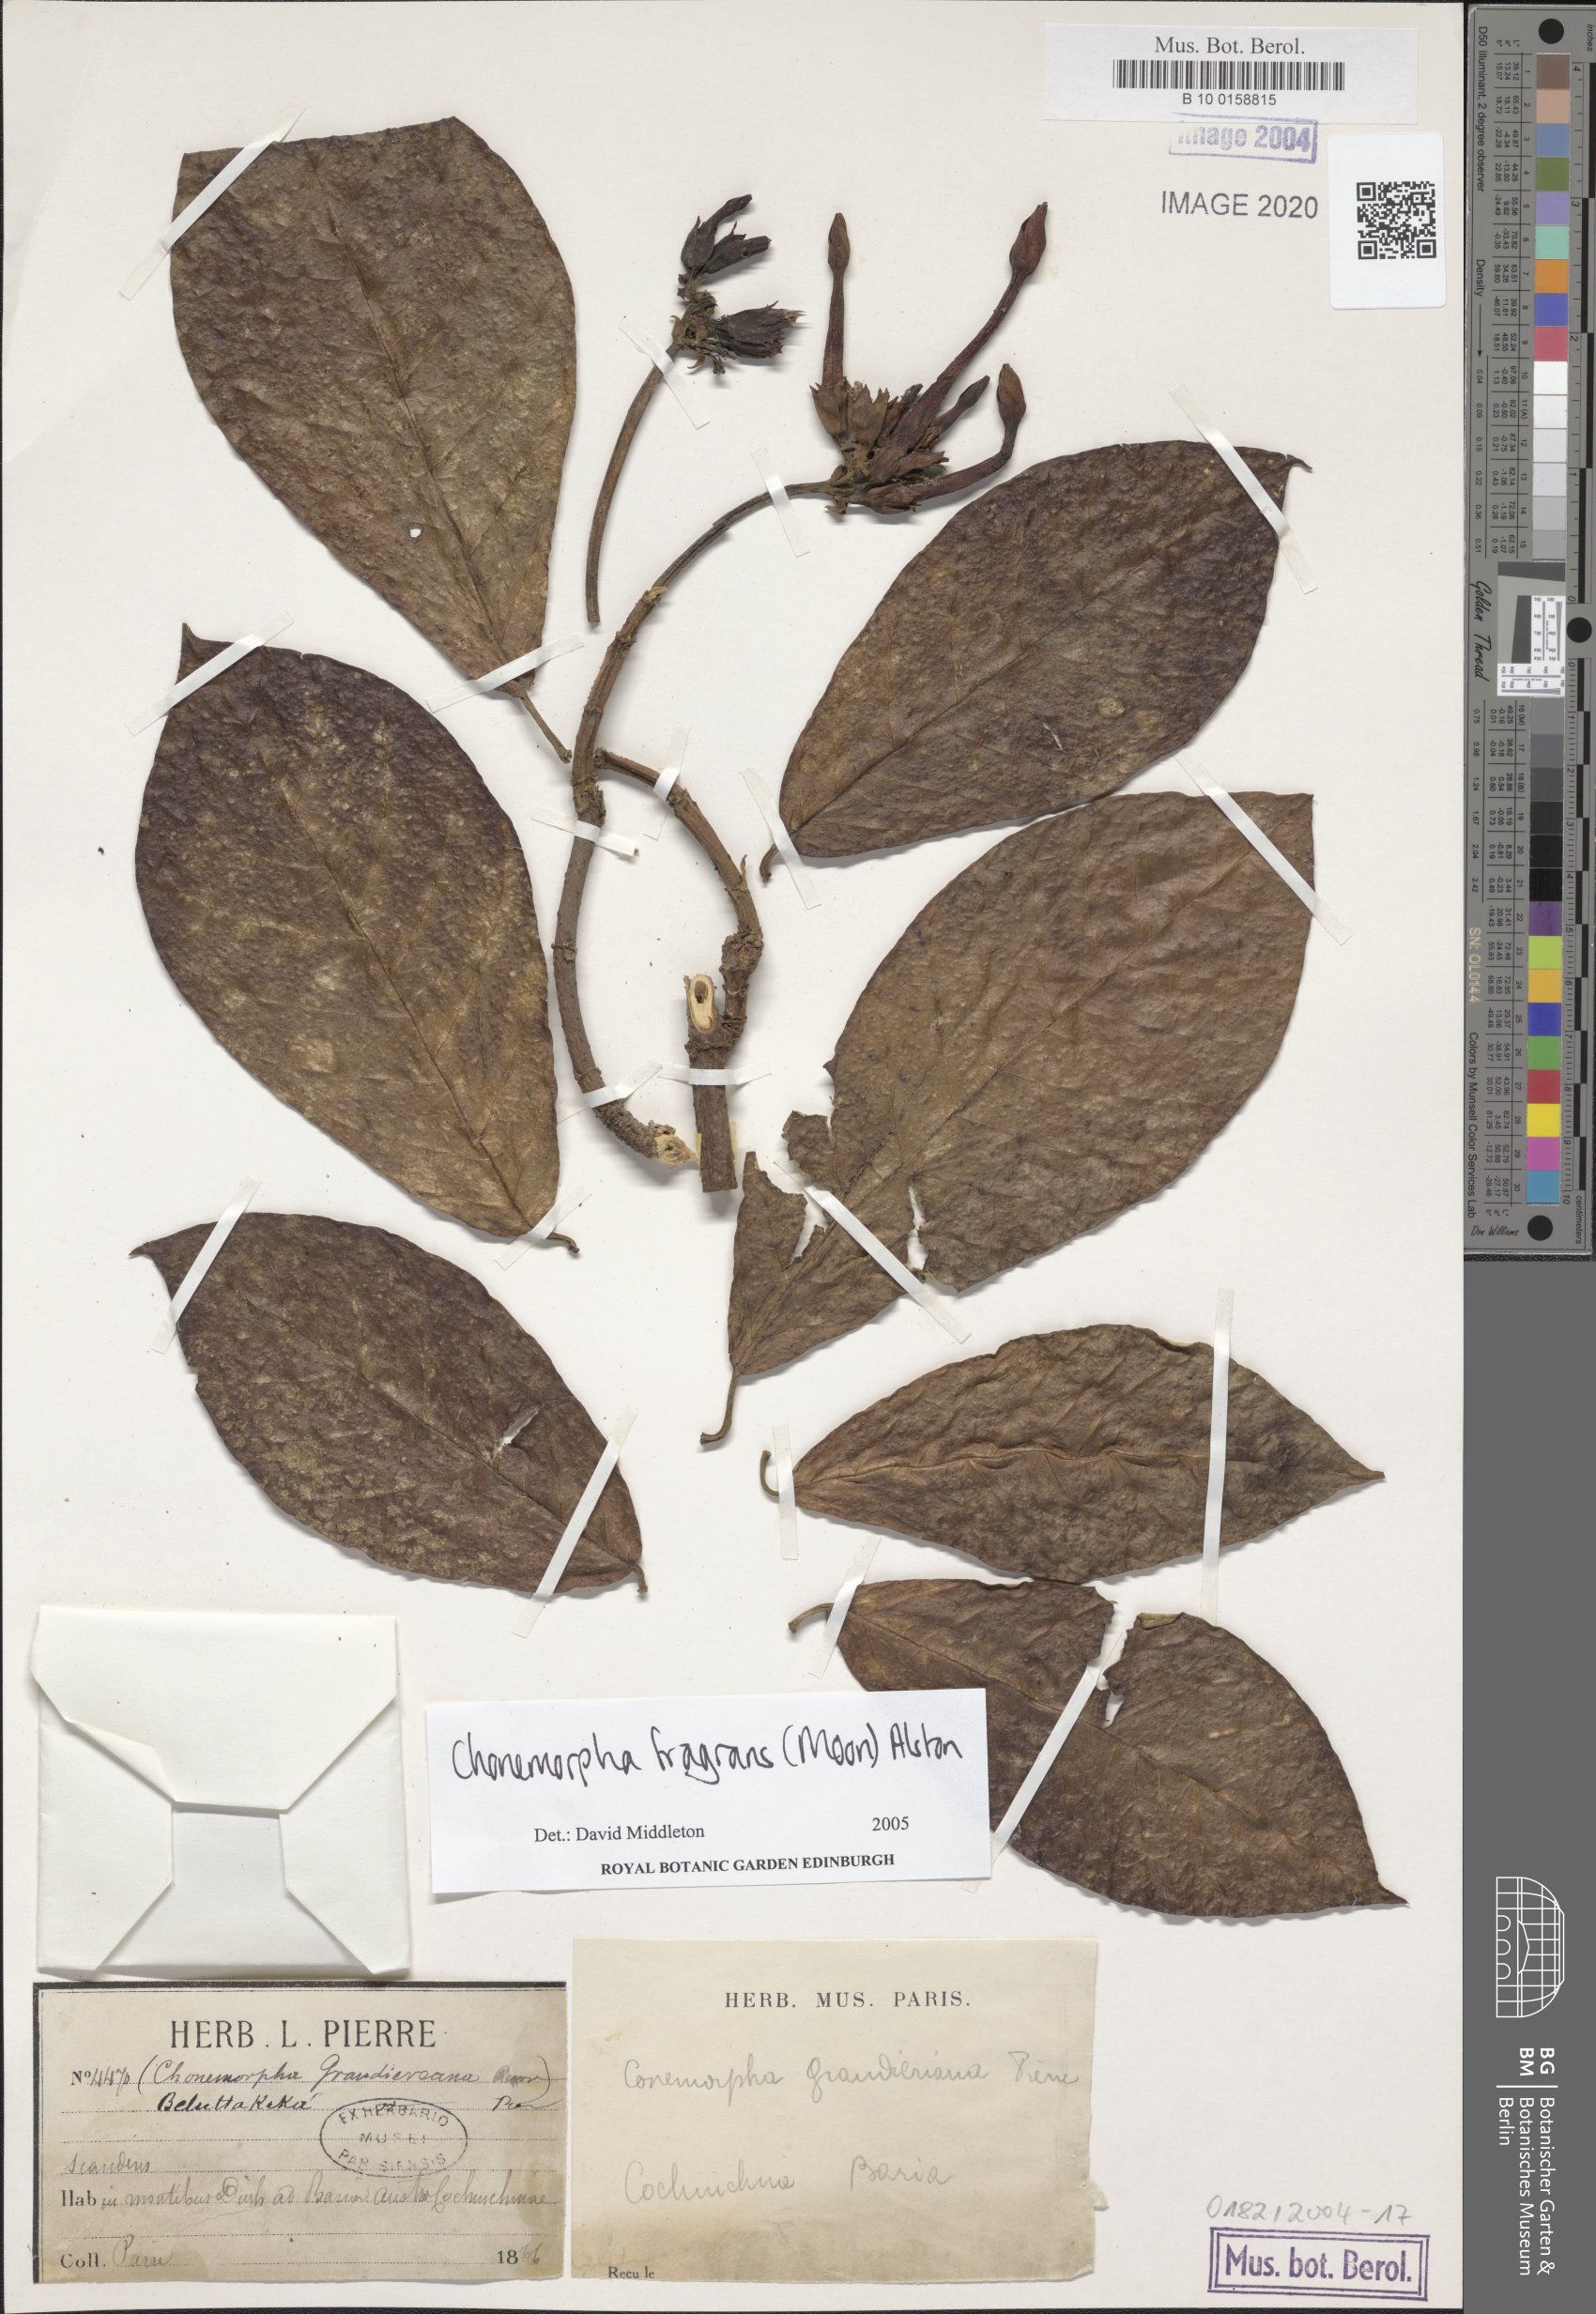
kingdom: Plantae
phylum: Tracheophyta
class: Magnoliopsida
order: Gentianales
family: Apocynaceae
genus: Chonemorpha
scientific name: Chonemorpha fragrans
